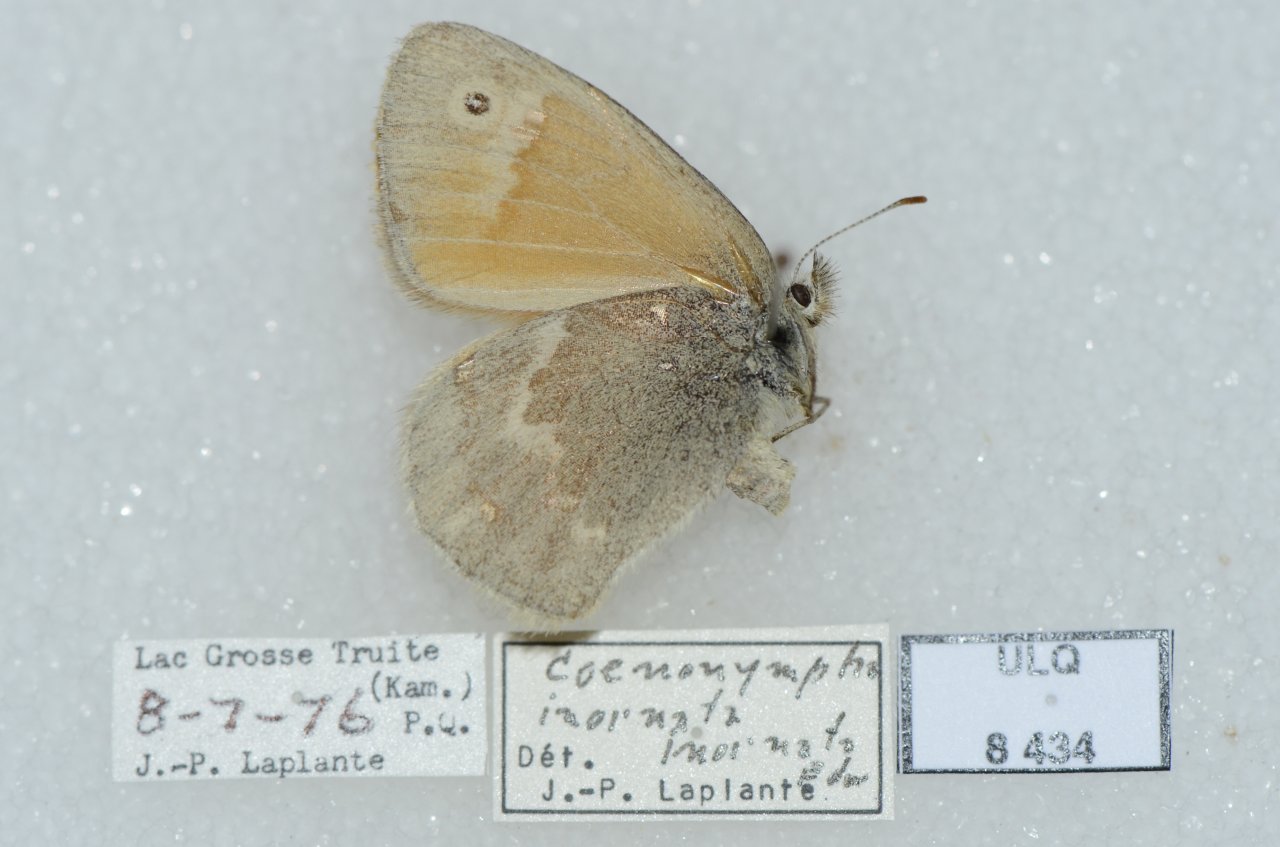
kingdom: Animalia
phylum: Arthropoda
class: Insecta
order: Lepidoptera
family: Nymphalidae
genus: Coenonympha
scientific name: Coenonympha tullia
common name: Large Heath
